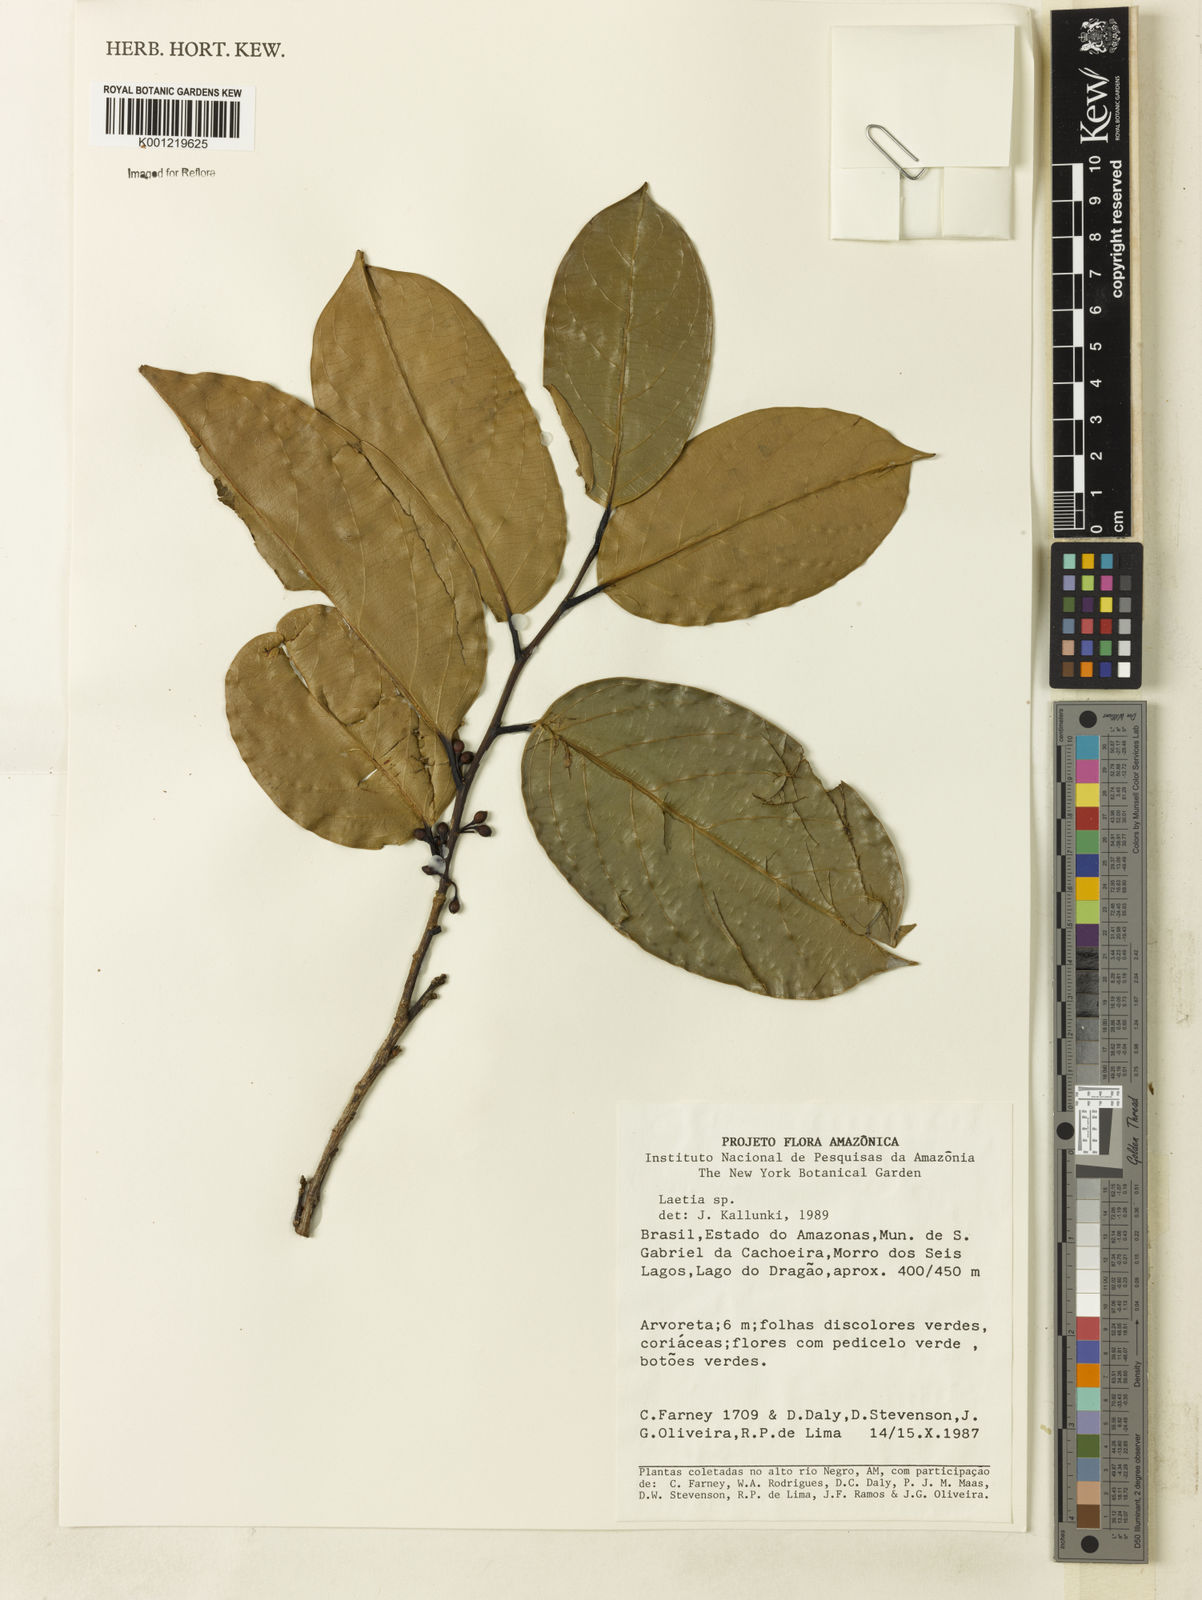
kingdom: Plantae
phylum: Tracheophyta
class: Magnoliopsida
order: Malpighiales
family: Flacourtiaceae
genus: Laetia
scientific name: Laetia
